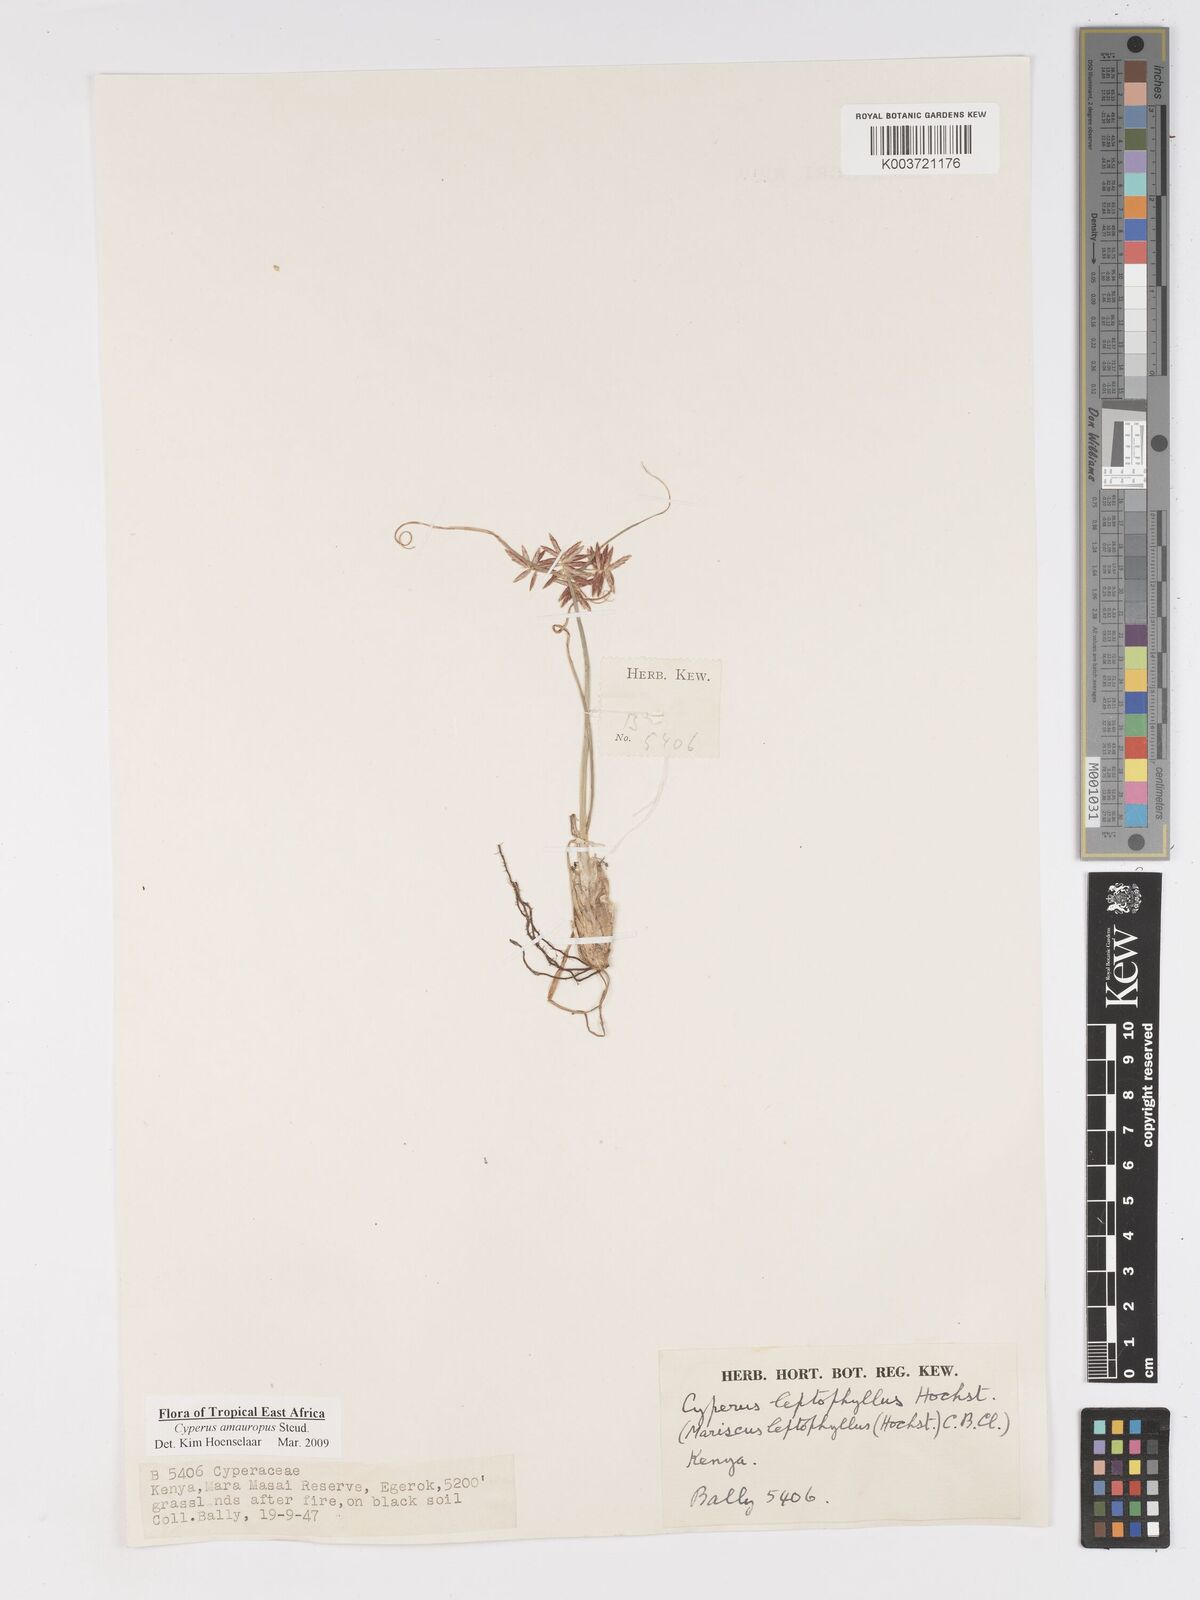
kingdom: Plantae
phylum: Tracheophyta
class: Liliopsida
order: Poales
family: Cyperaceae
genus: Cyperus
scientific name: Cyperus amauropus
